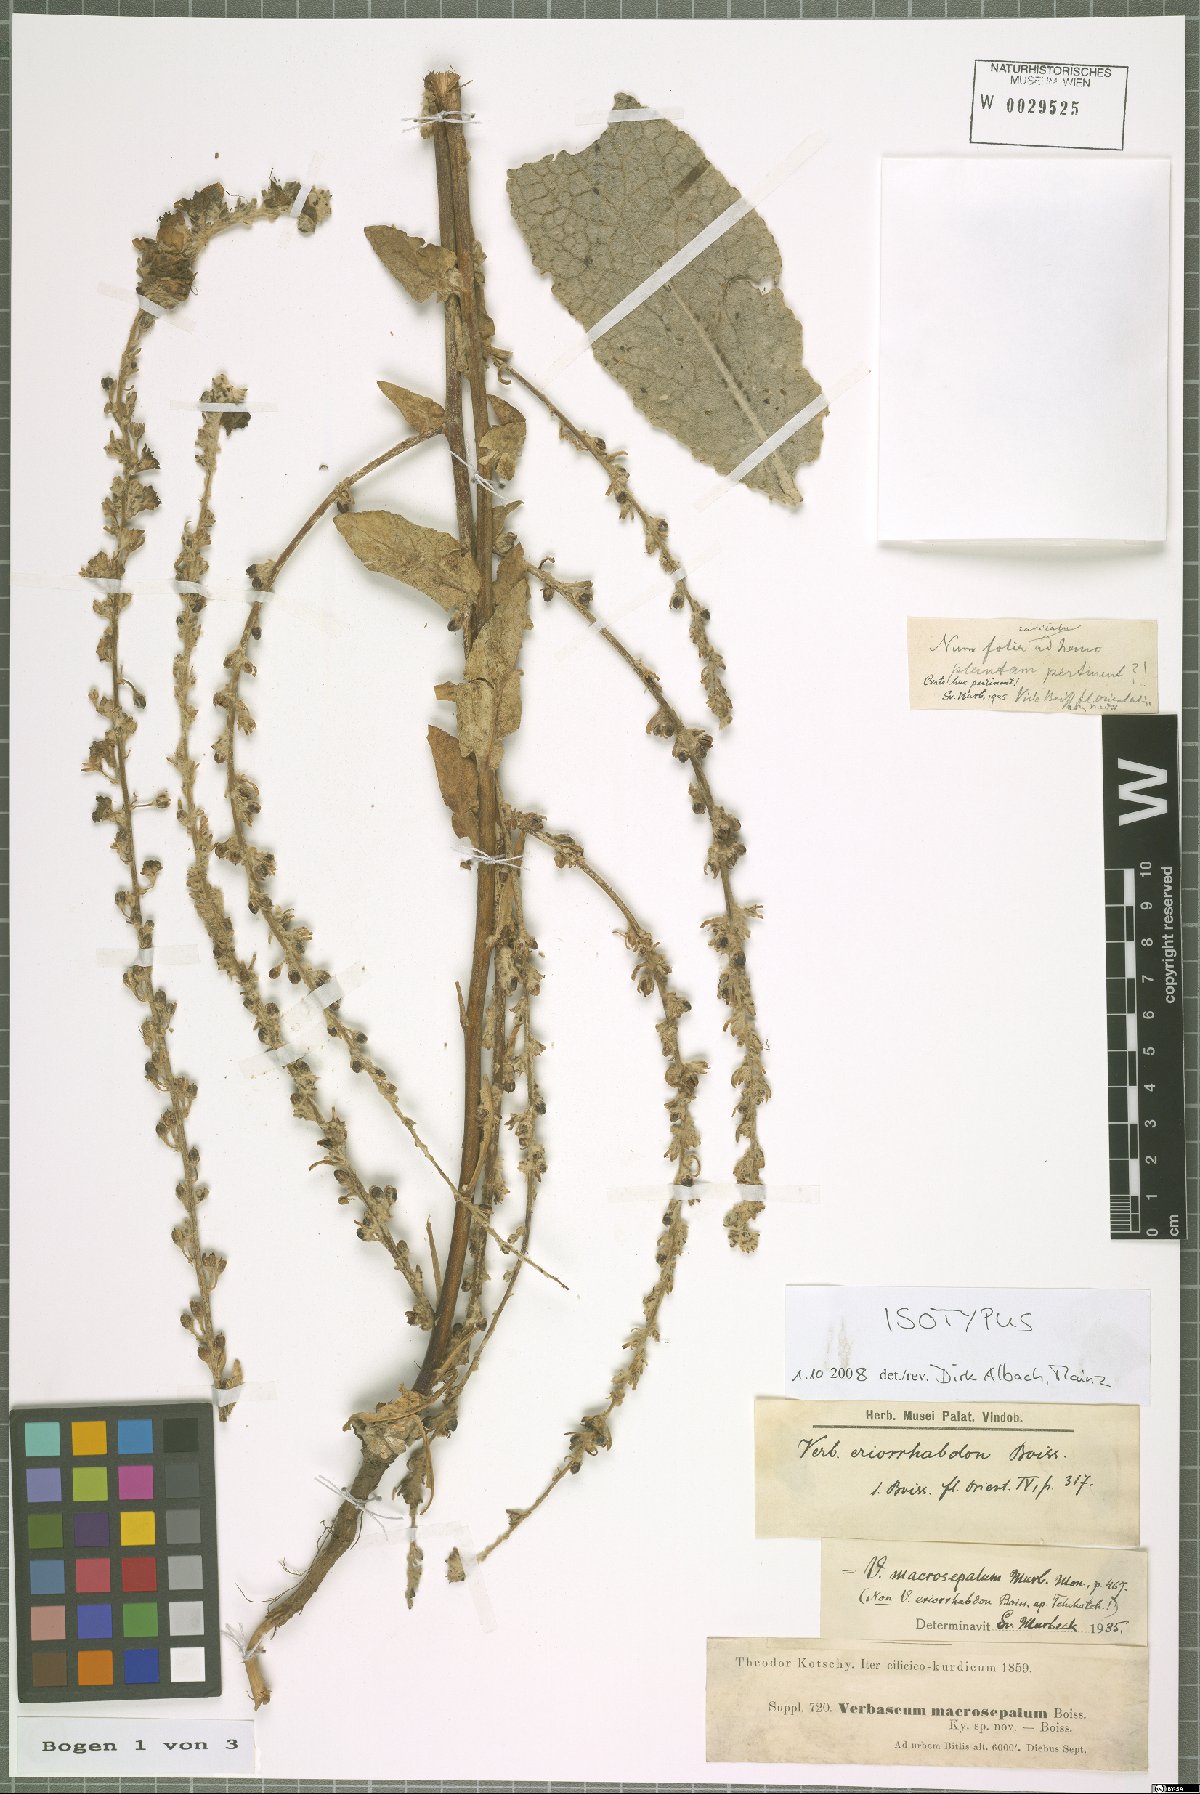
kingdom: Plantae
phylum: Tracheophyta
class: Magnoliopsida
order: Lamiales
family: Scrophulariaceae
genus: Verbascum
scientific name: Verbascum macrosepalum
